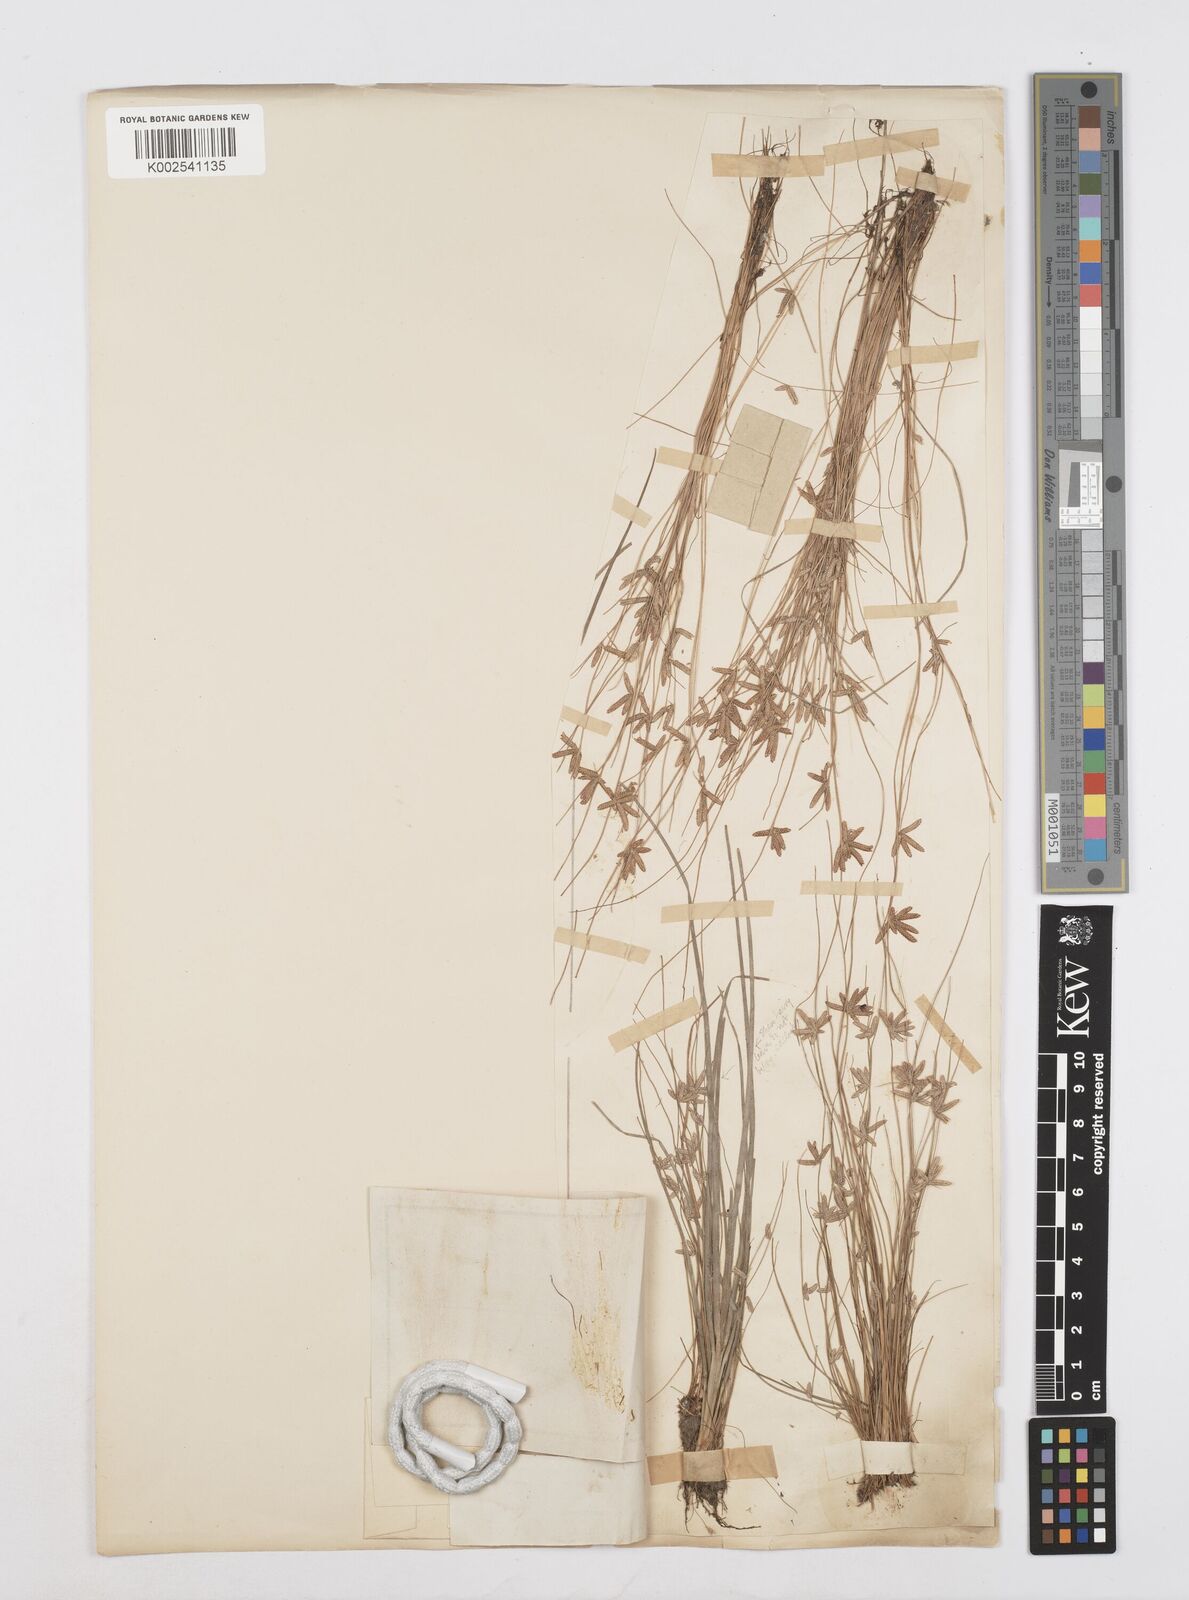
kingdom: Plantae
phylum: Tracheophyta
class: Liliopsida
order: Poales
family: Cyperaceae
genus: Cyperus
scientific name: Cyperus capillifolius
